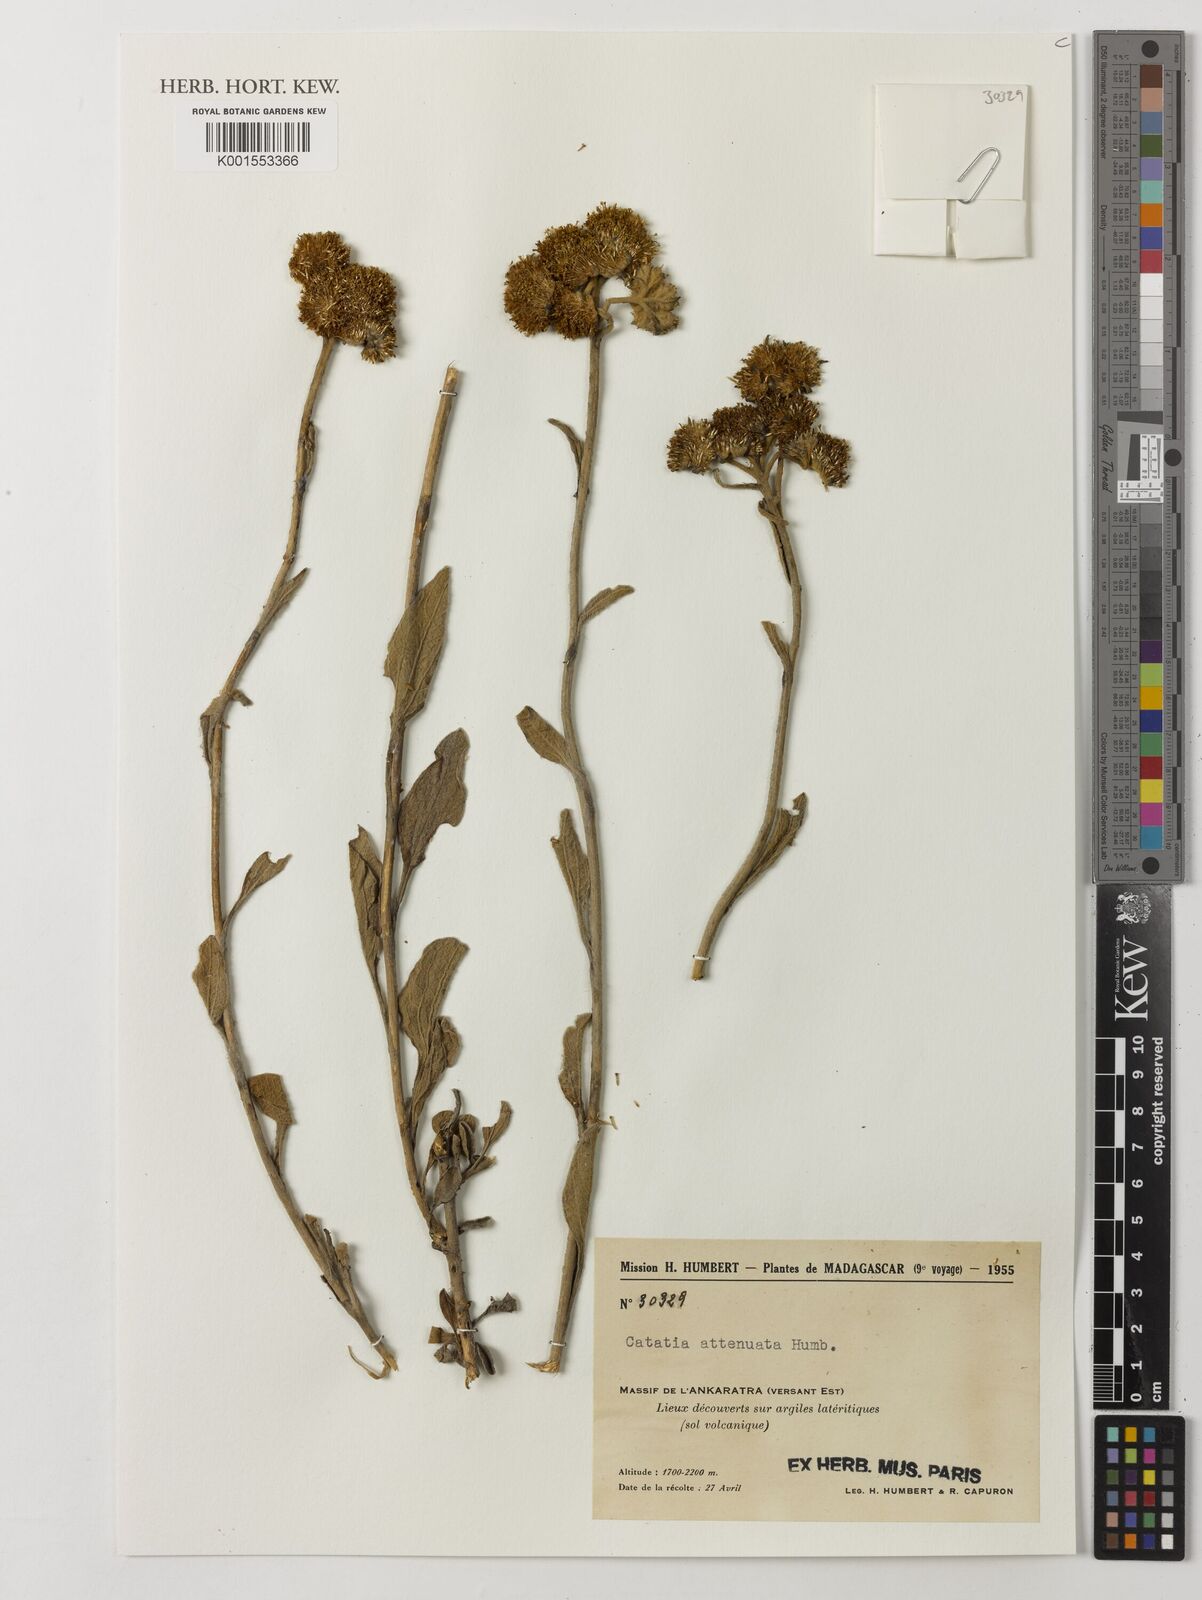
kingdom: Plantae
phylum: Tracheophyta
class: Magnoliopsida
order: Asterales
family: Asteraceae
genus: Catatia
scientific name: Catatia attenuata
